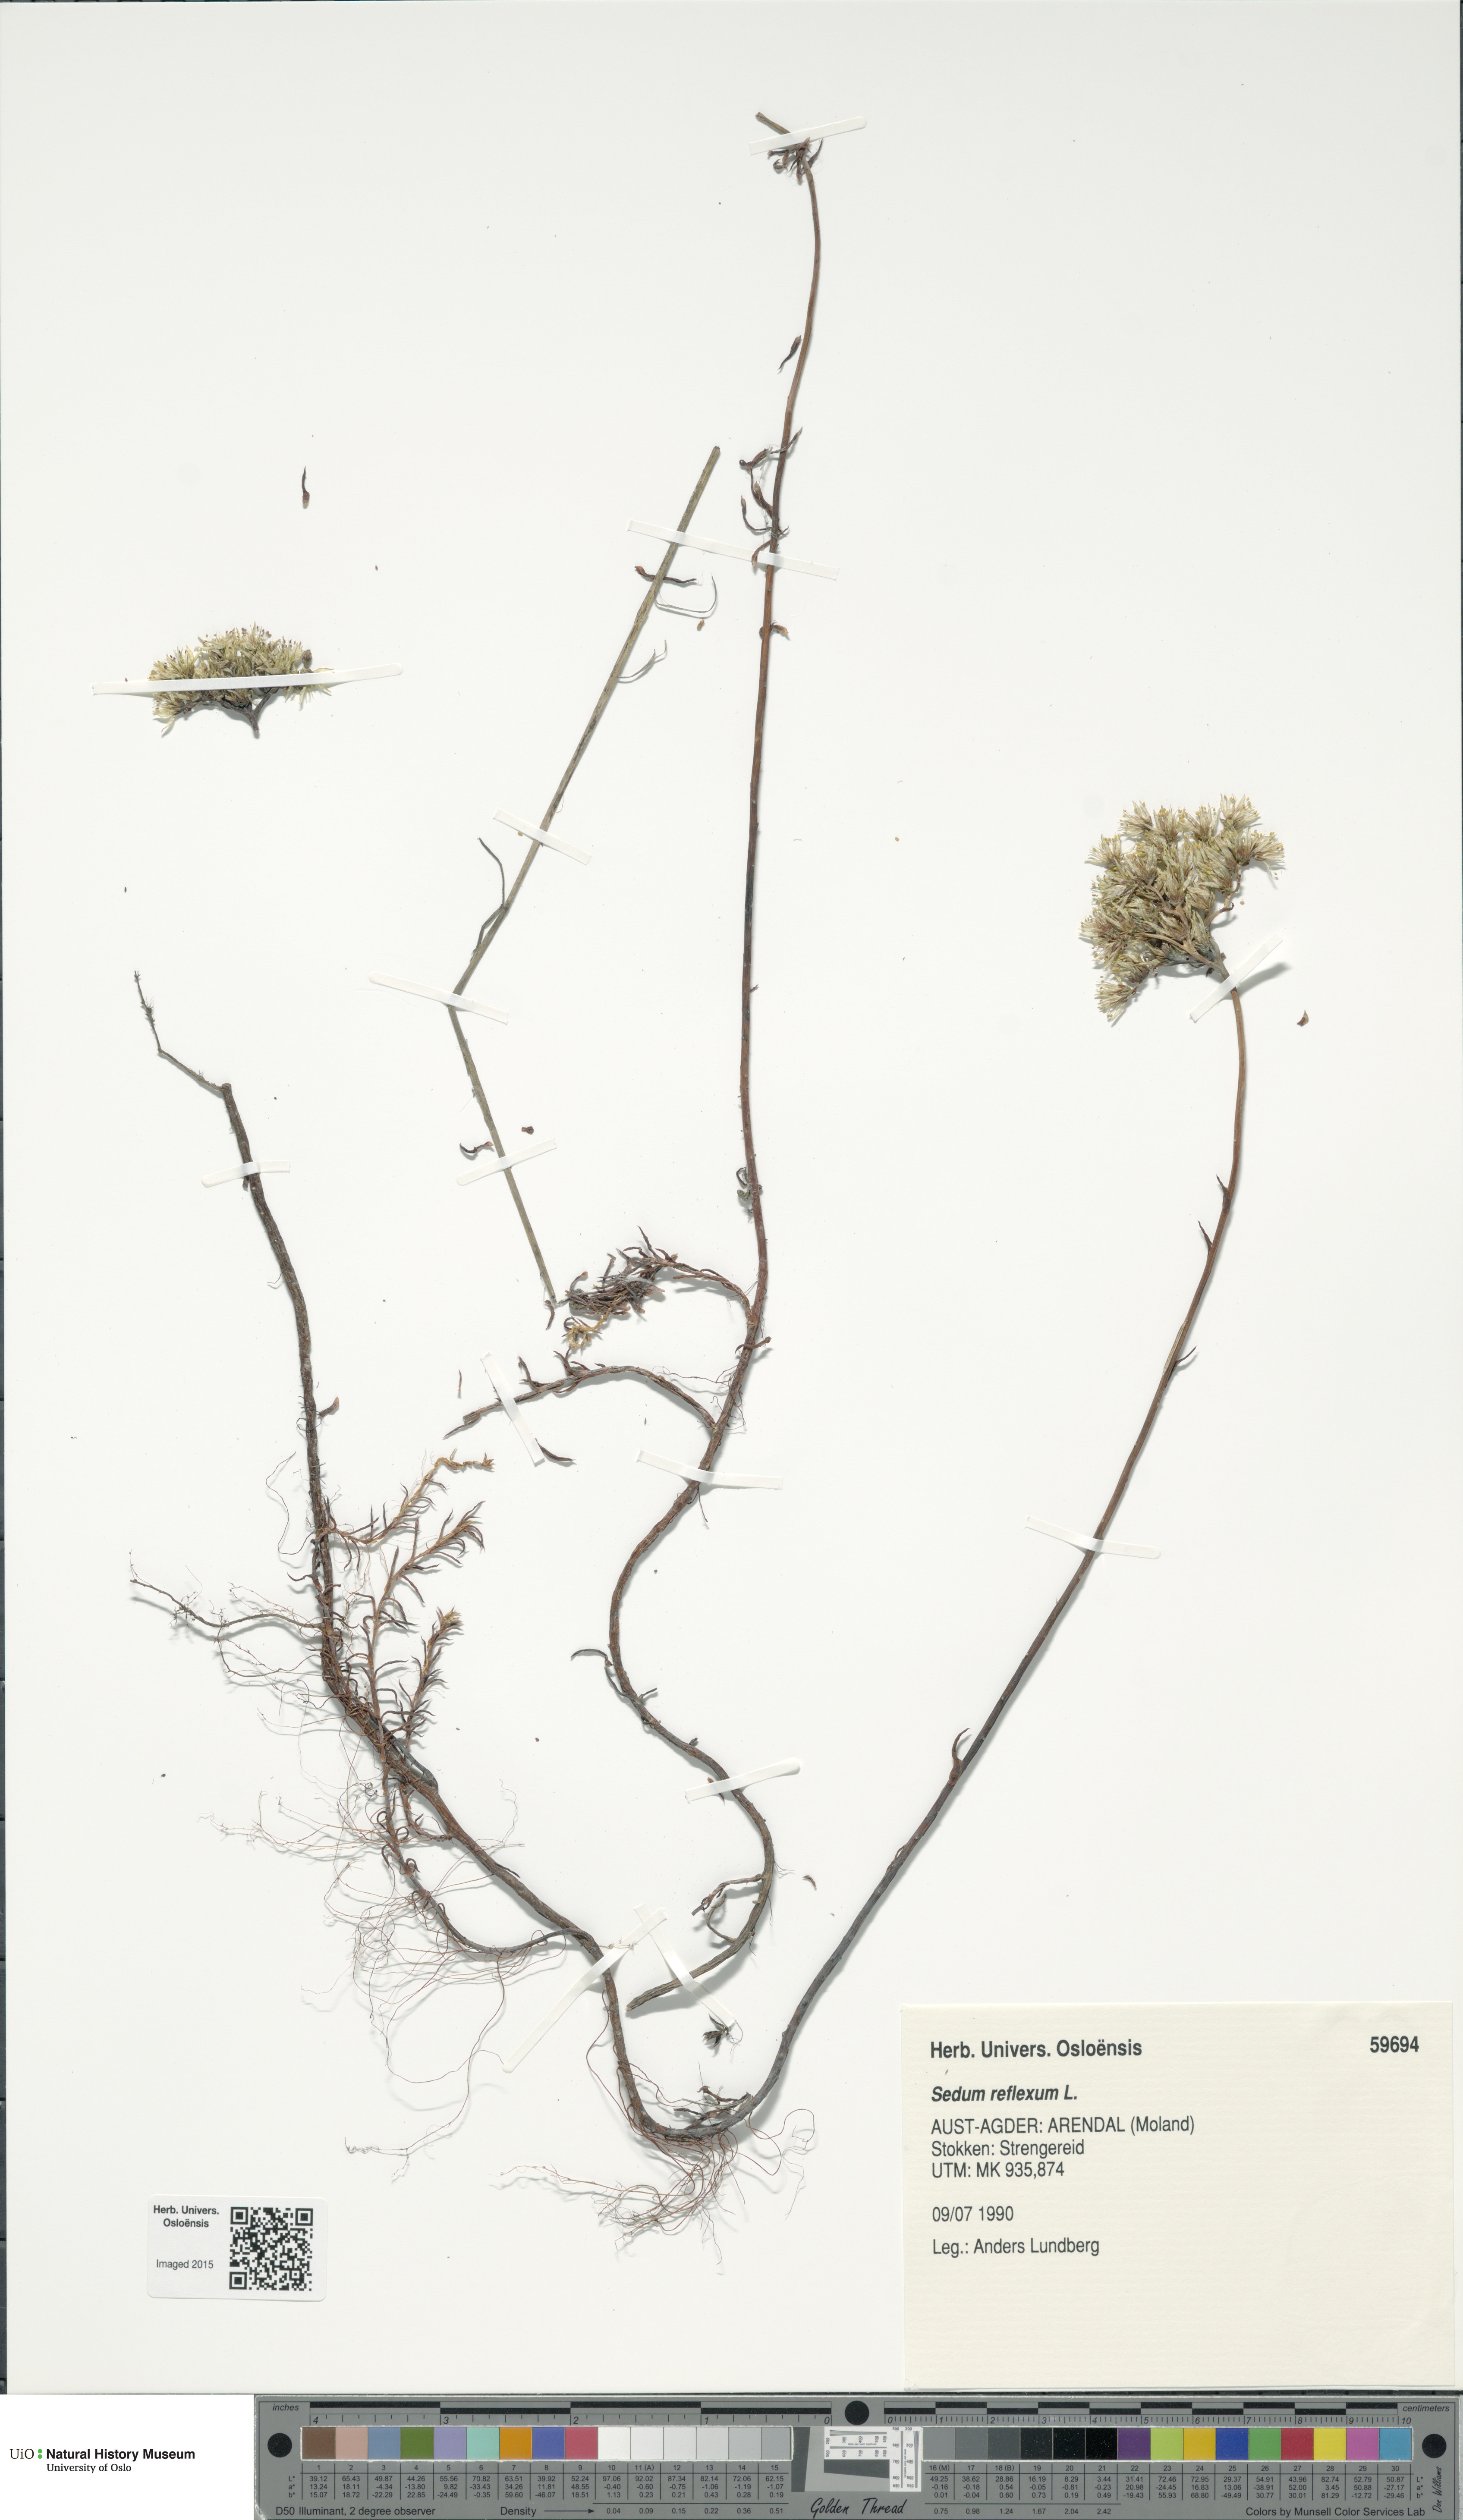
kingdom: Plantae
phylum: Tracheophyta
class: Magnoliopsida
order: Saxifragales
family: Crassulaceae
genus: Petrosedum
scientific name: Petrosedum rupestre
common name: Jenny's stonecrop
